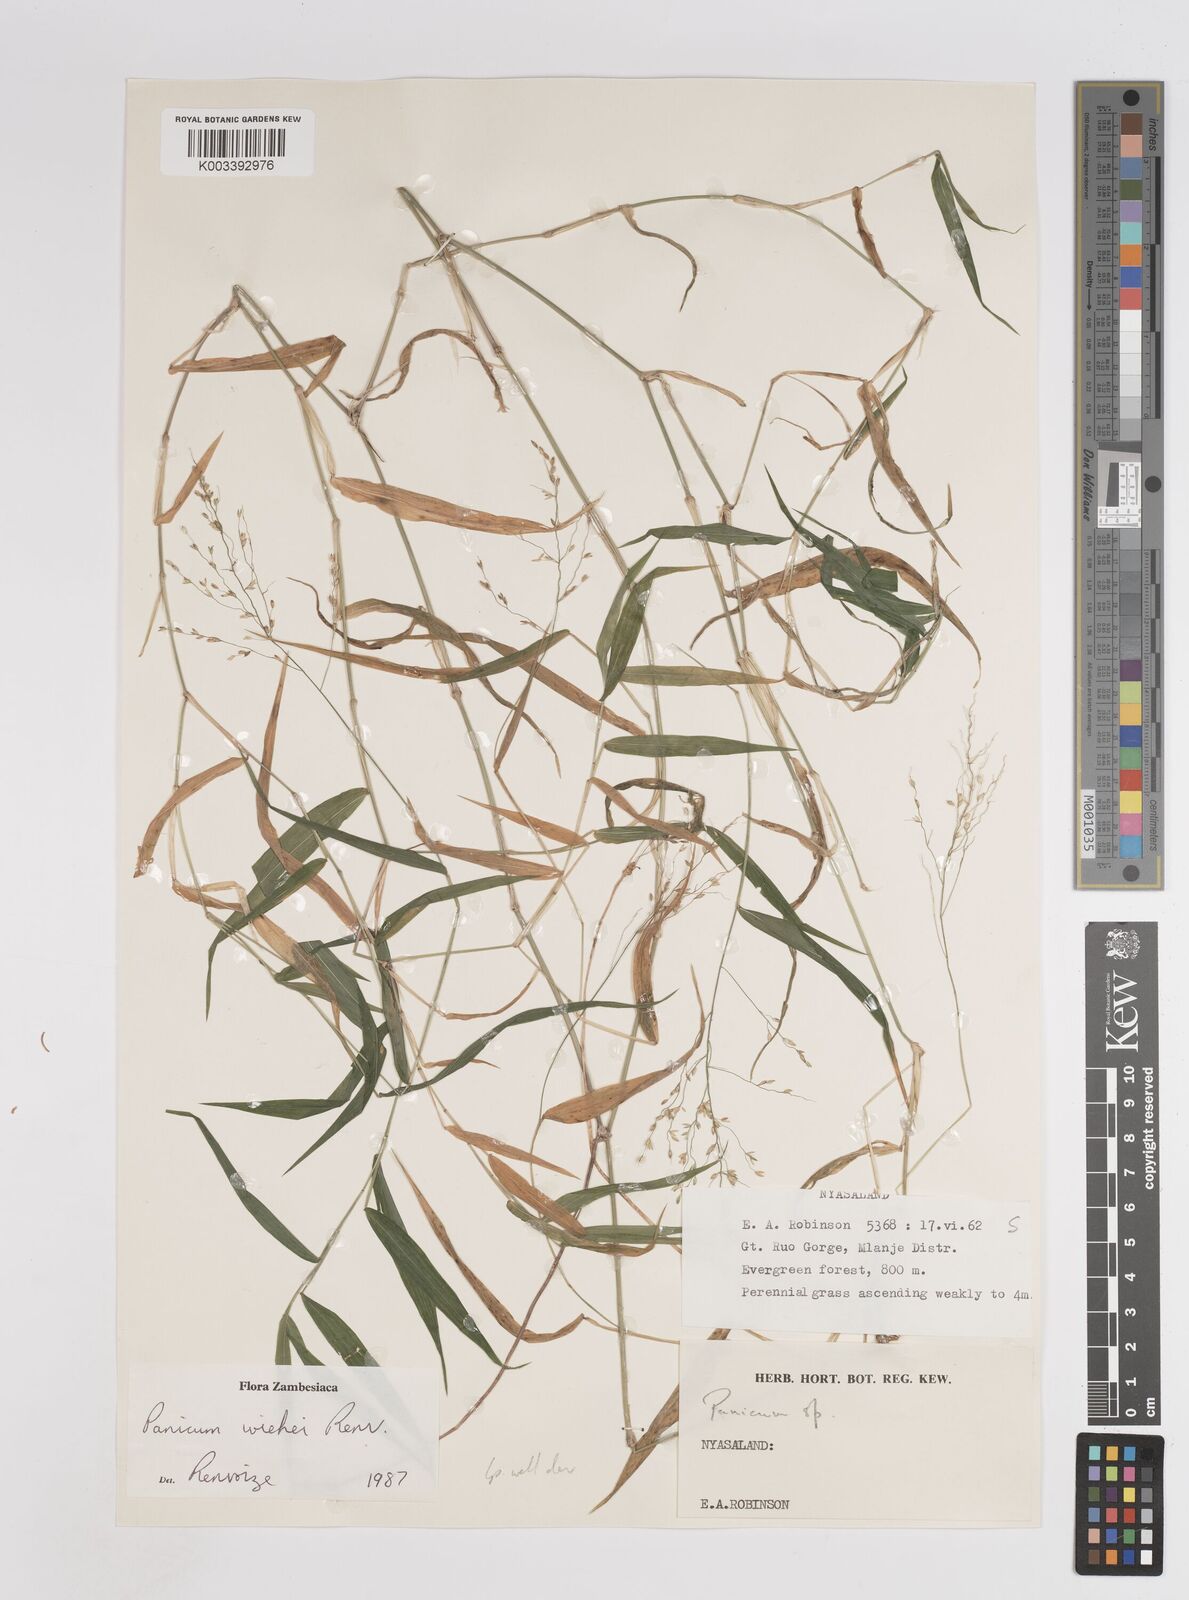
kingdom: Plantae
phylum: Tracheophyta
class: Liliopsida
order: Poales
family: Poaceae
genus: Panicum
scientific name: Panicum wiehei
